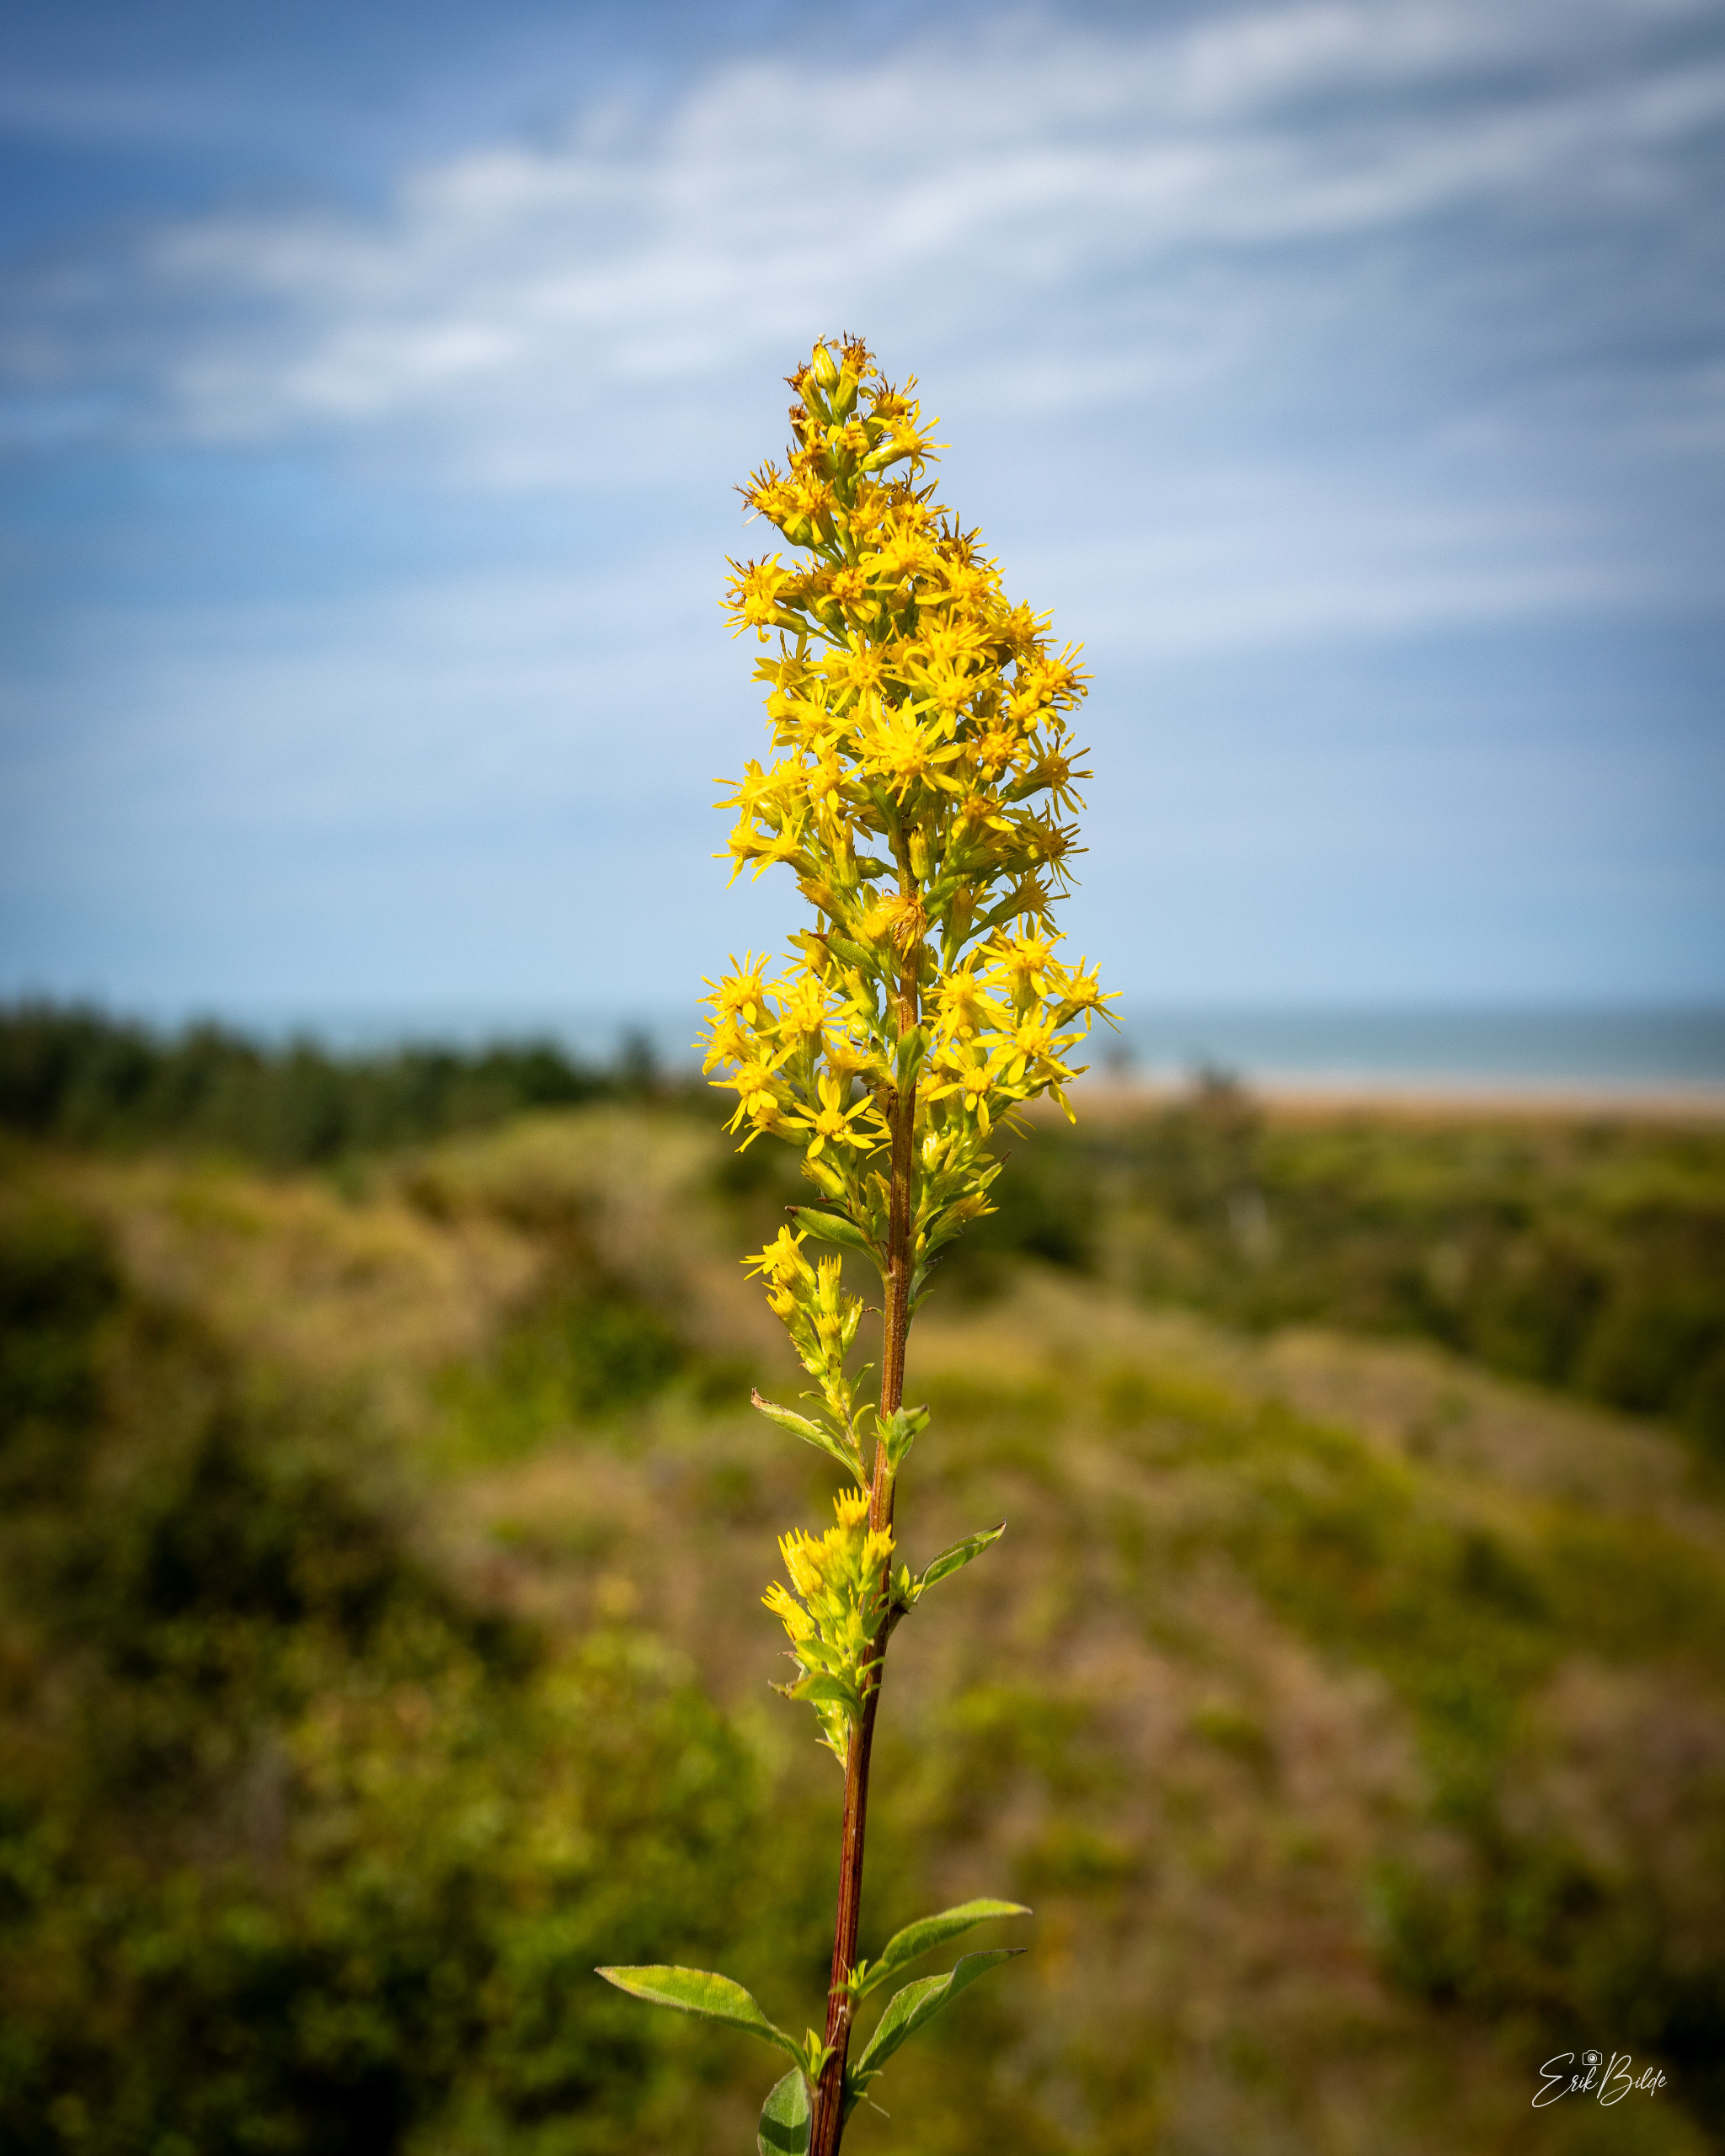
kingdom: Plantae
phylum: Tracheophyta
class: Magnoliopsida
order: Asterales
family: Asteraceae
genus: Solidago
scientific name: Solidago virgaurea
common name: Almindelig gyldenris
